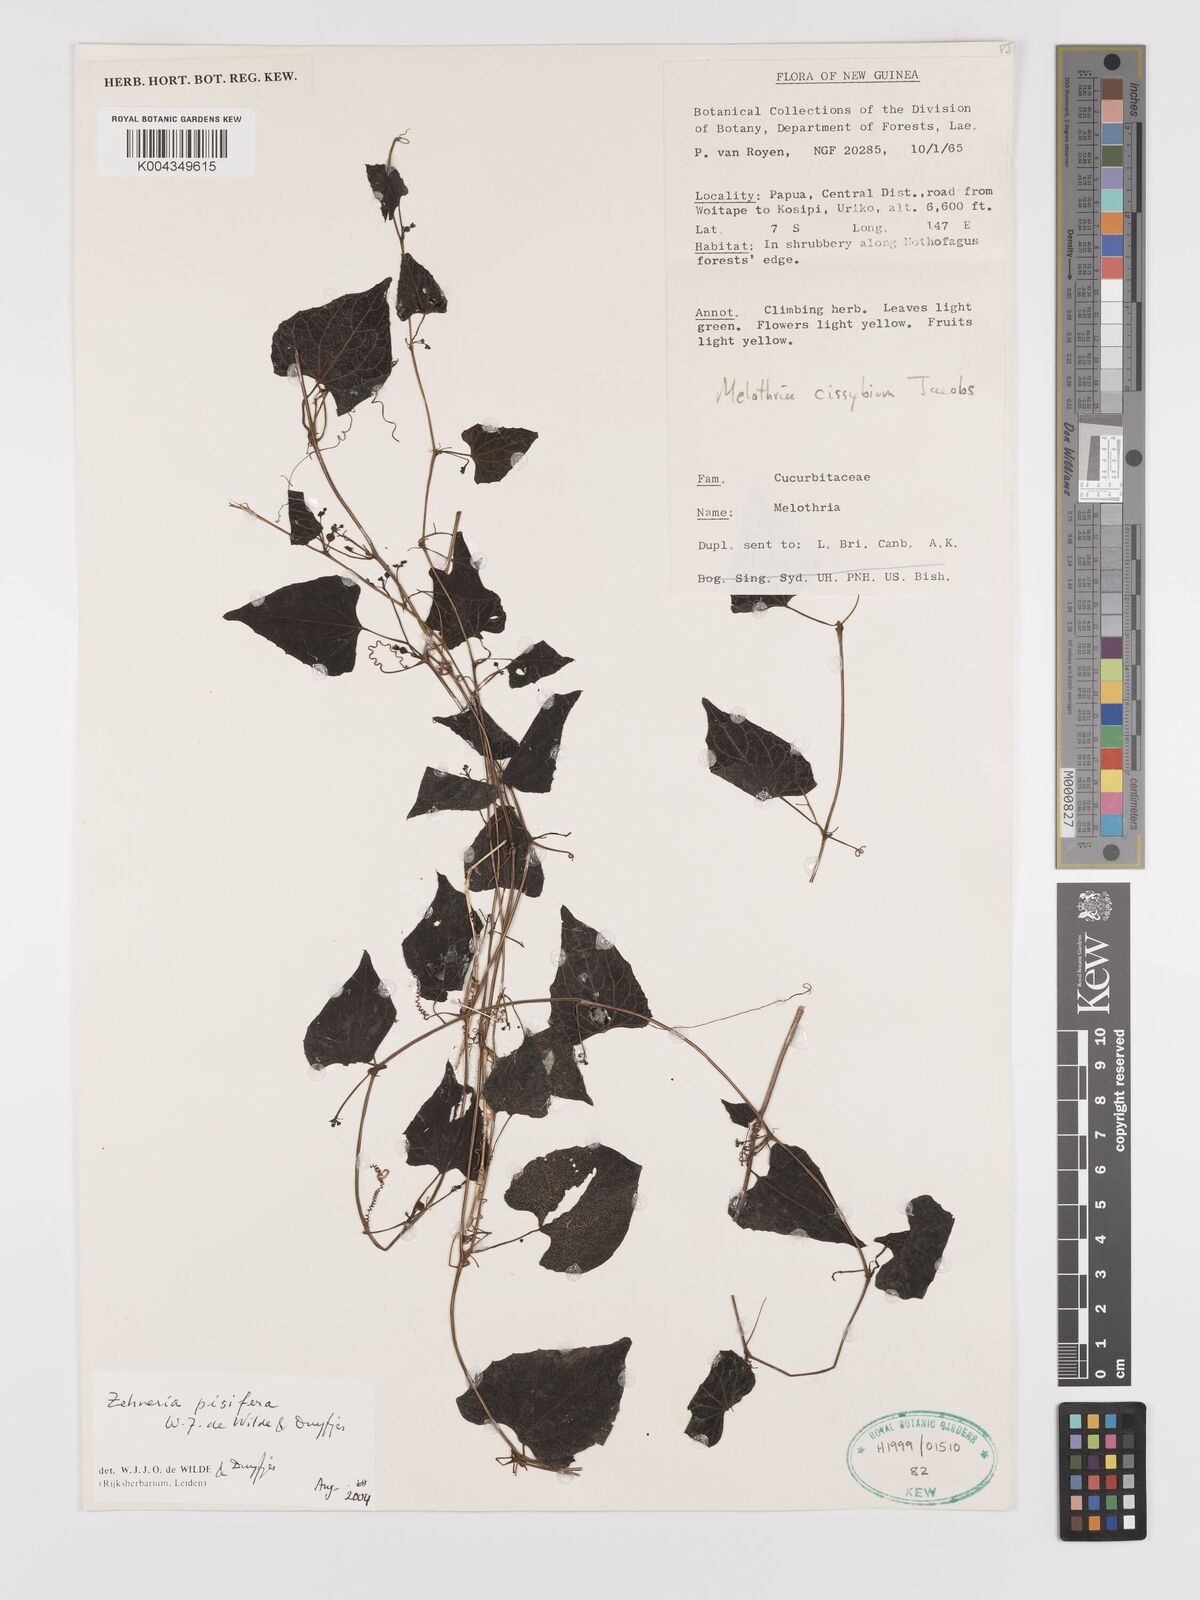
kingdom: Plantae
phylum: Tracheophyta
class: Magnoliopsida
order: Cucurbitales
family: Cucurbitaceae
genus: Zehneria
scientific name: Zehneria pisifera
